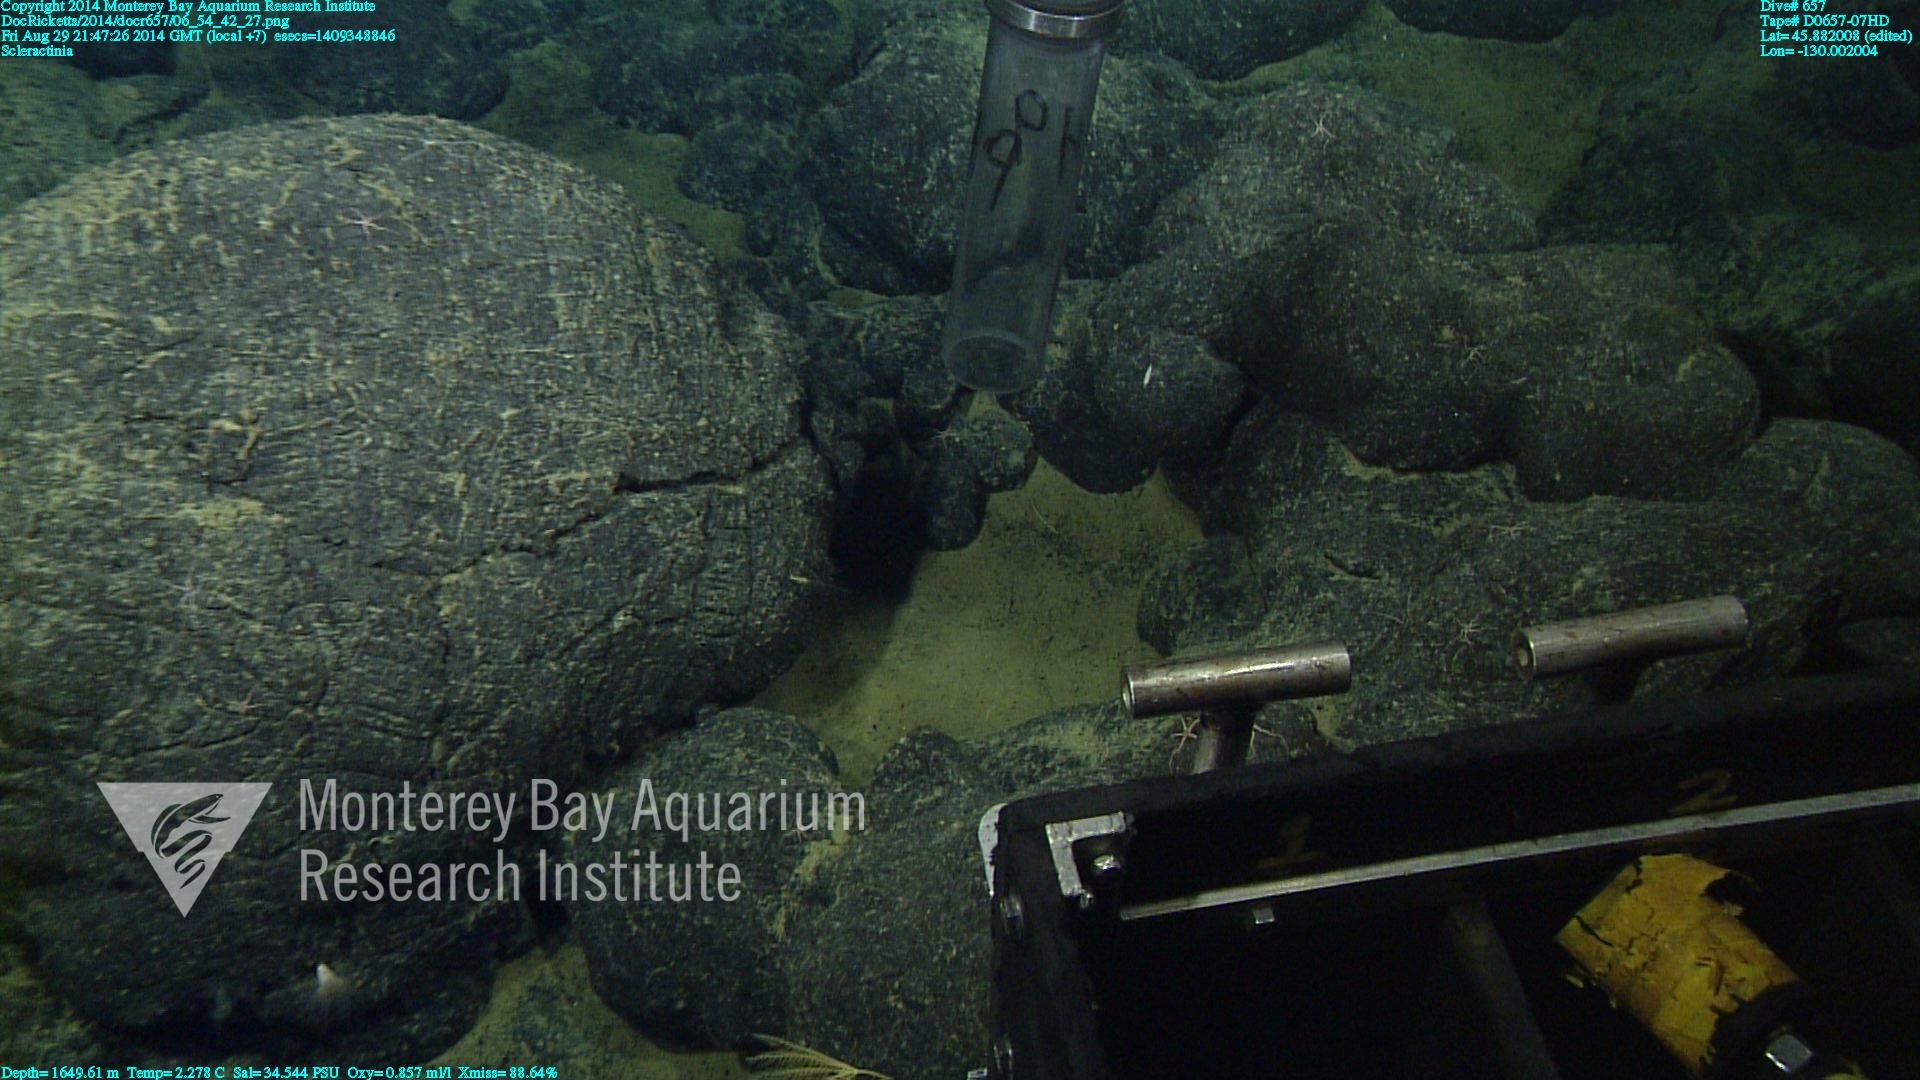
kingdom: Animalia
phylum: Cnidaria
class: Anthozoa
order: Scleractinia
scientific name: Scleractinia
